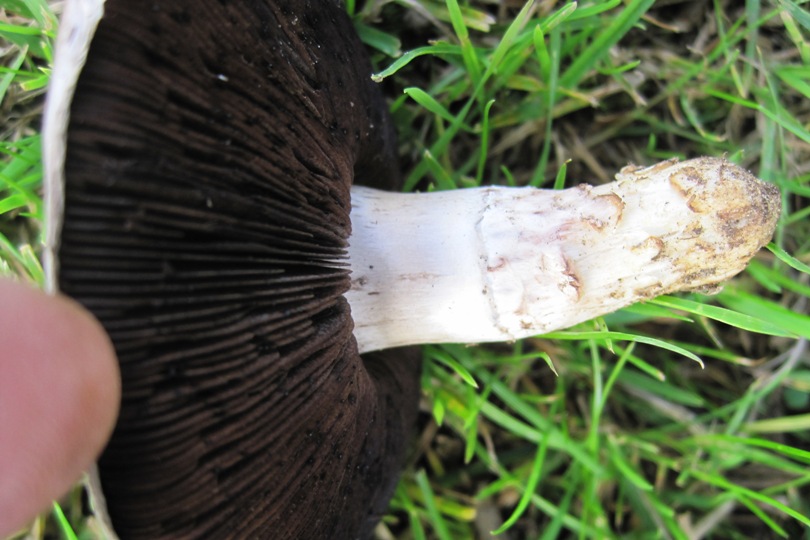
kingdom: Fungi
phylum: Basidiomycota
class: Agaricomycetes
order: Agaricales
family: Agaricaceae
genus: Agaricus
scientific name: Agaricus campestris
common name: mark-champignon
